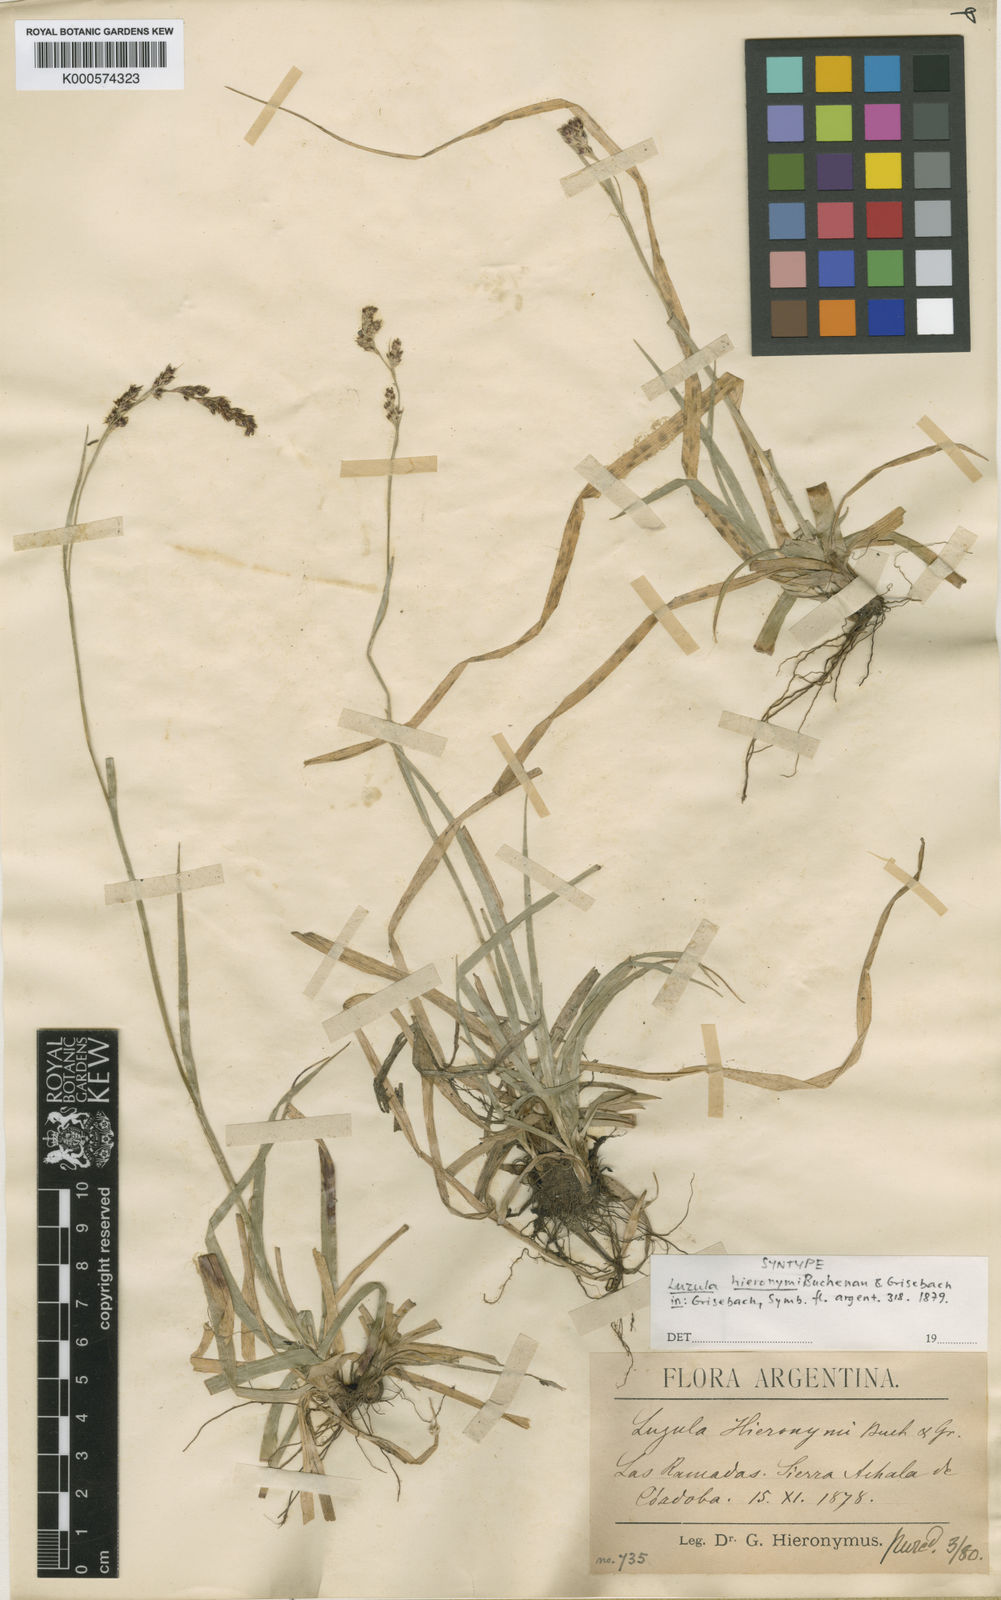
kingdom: Plantae
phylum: Tracheophyta
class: Liliopsida
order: Poales
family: Juncaceae
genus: Luzula
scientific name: Luzula excelsa
